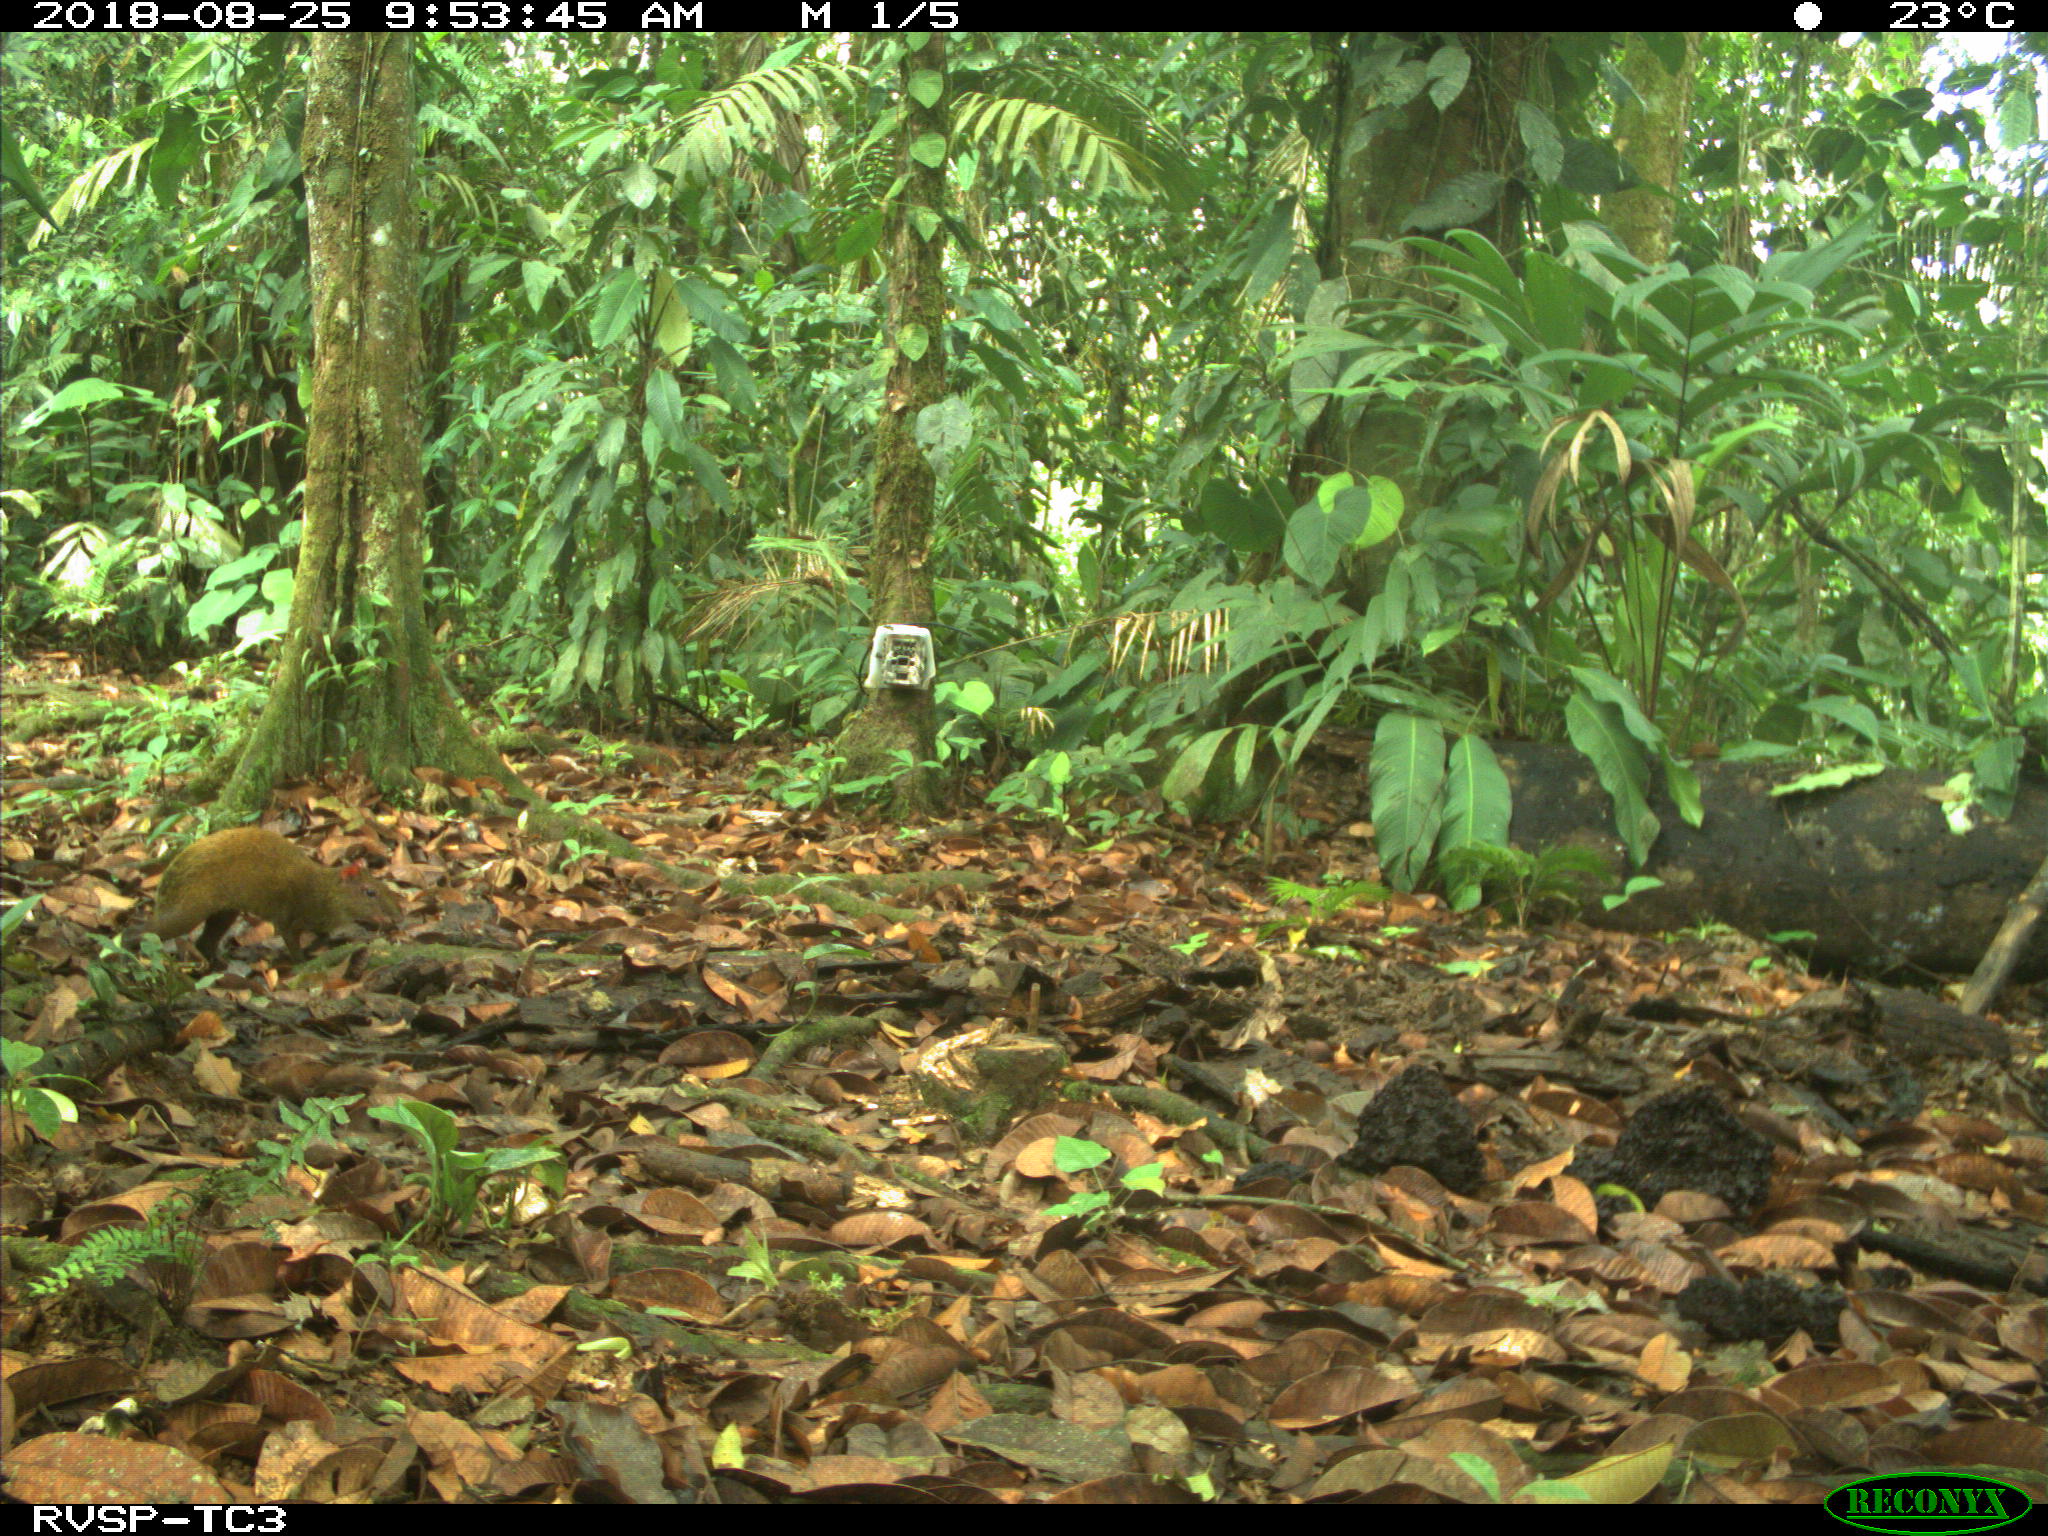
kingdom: Animalia
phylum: Chordata
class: Mammalia
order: Rodentia
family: Dasyproctidae
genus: Dasyprocta
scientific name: Dasyprocta punctata
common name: Central american agouti
